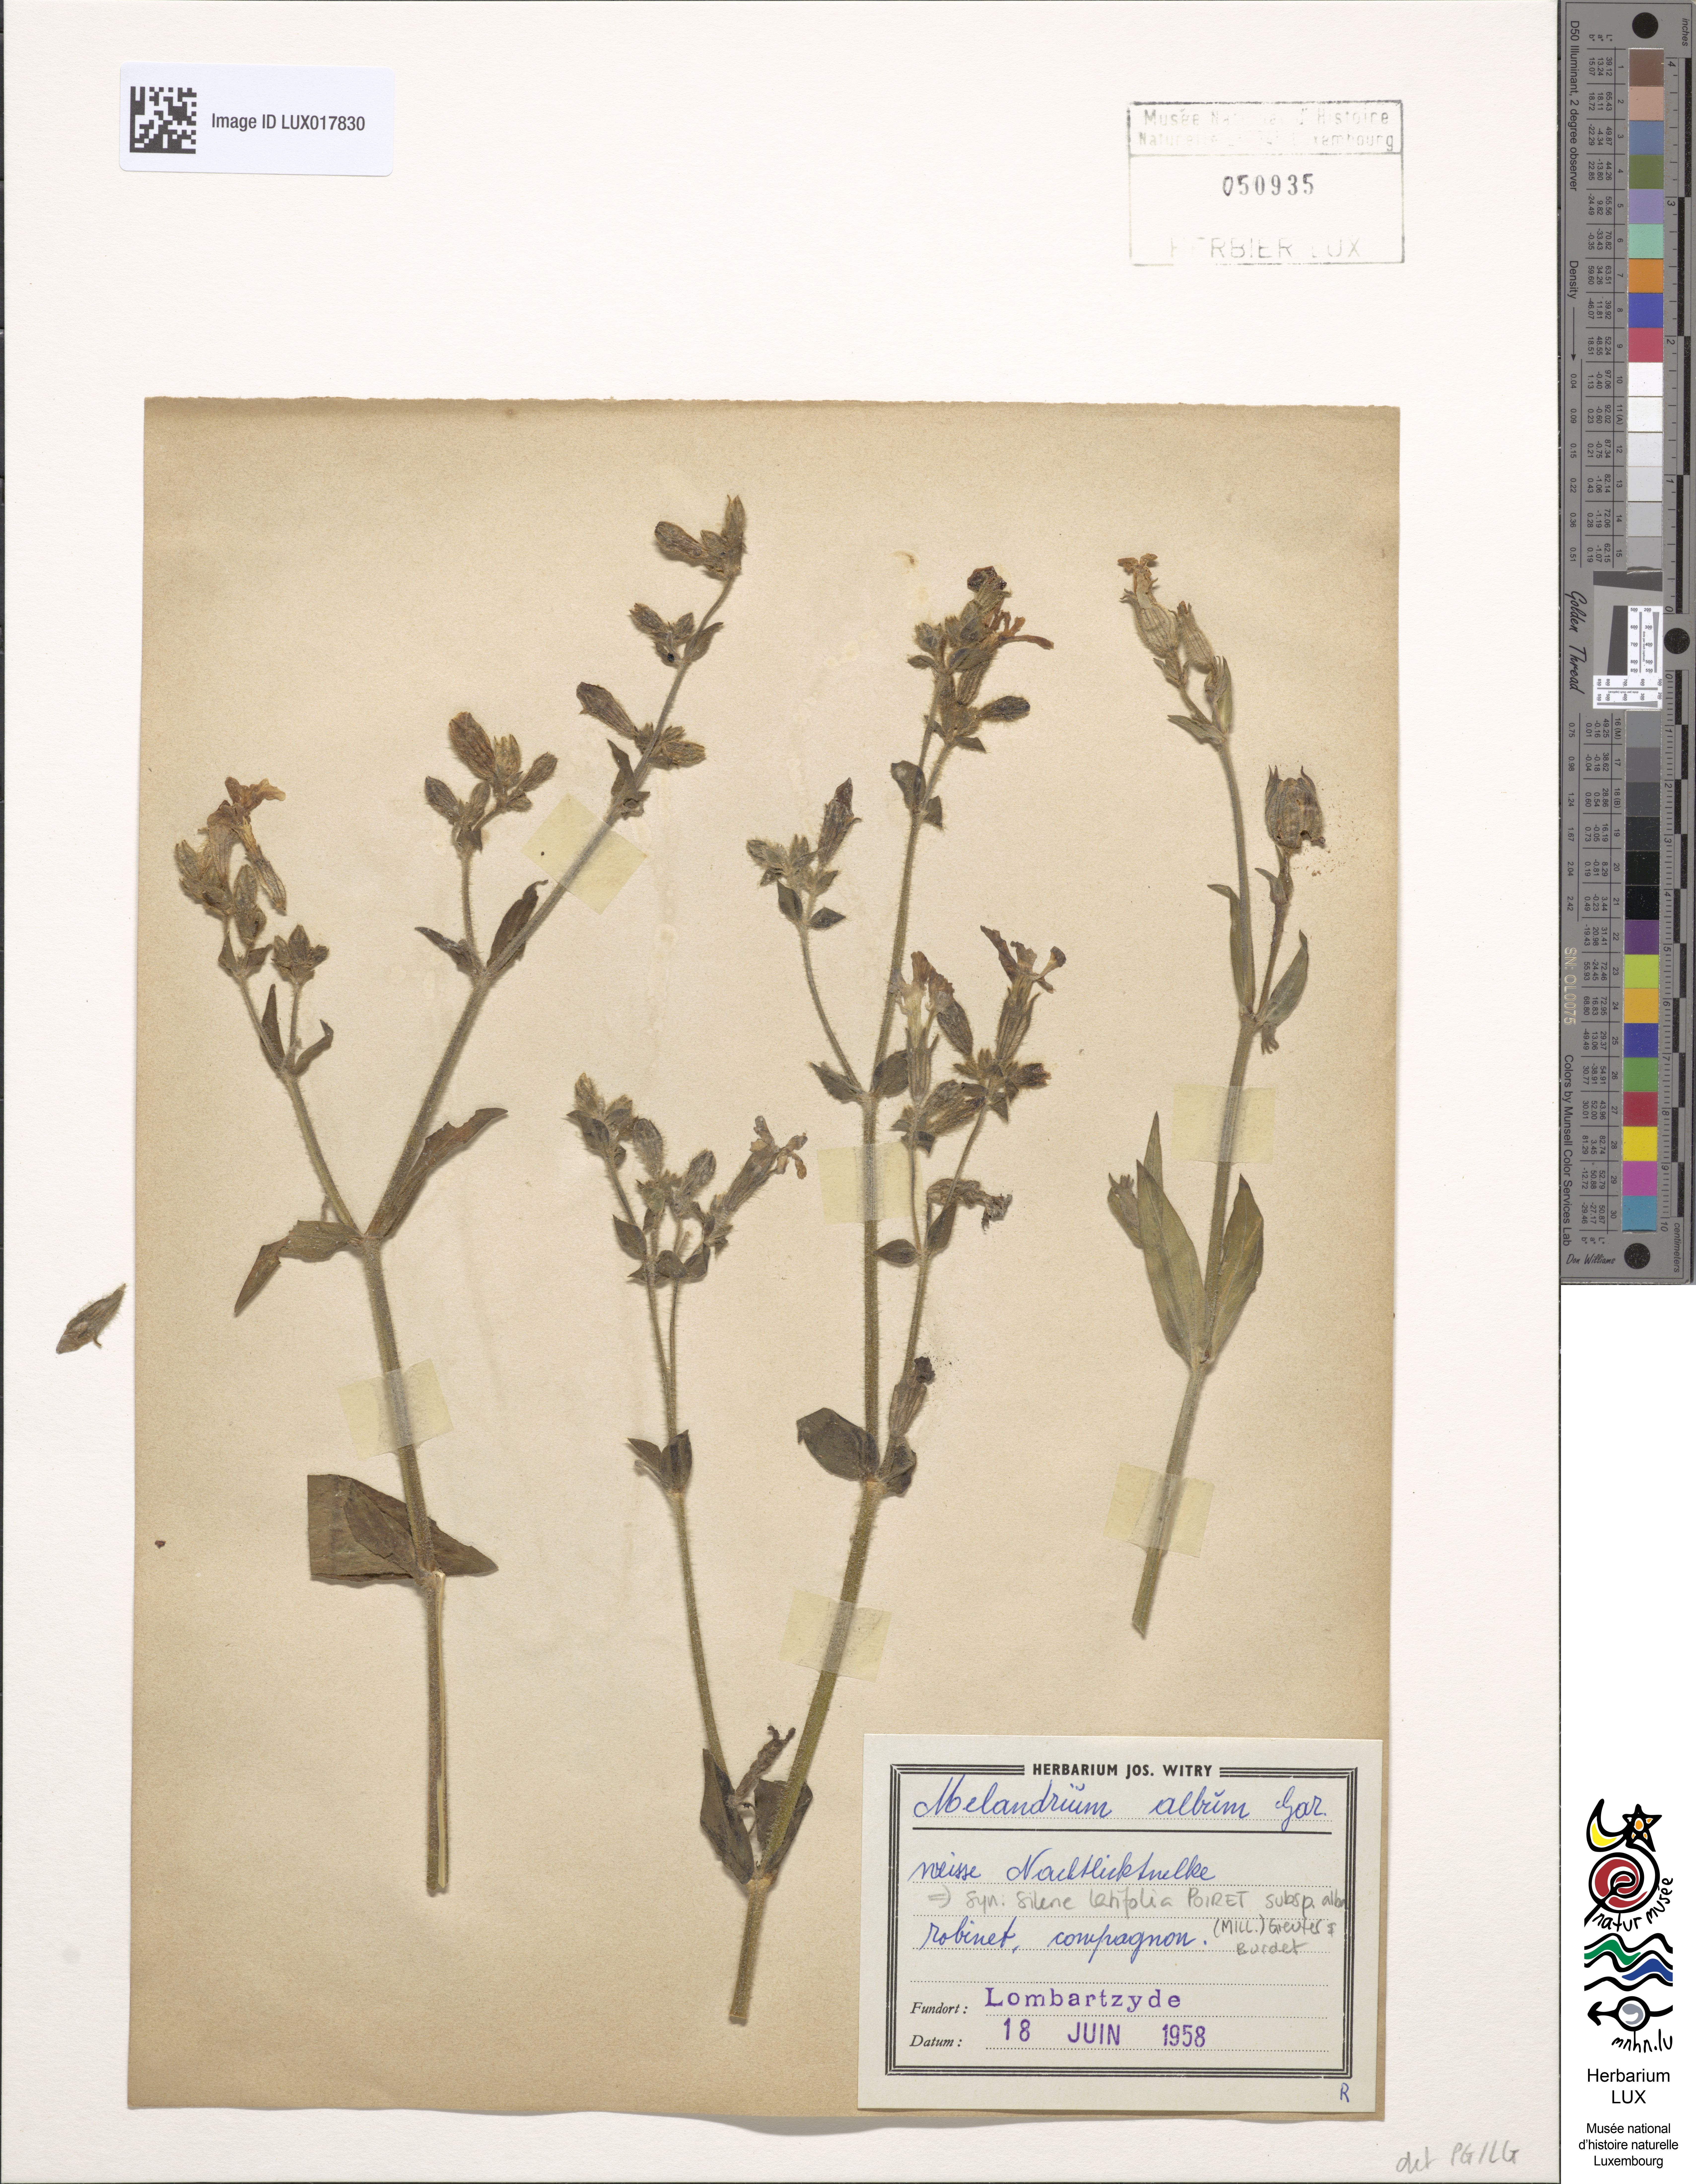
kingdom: Plantae
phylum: Tracheophyta
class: Magnoliopsida
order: Caryophyllales
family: Caryophyllaceae
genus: Silene
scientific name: Silene latifolia
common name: White campion
